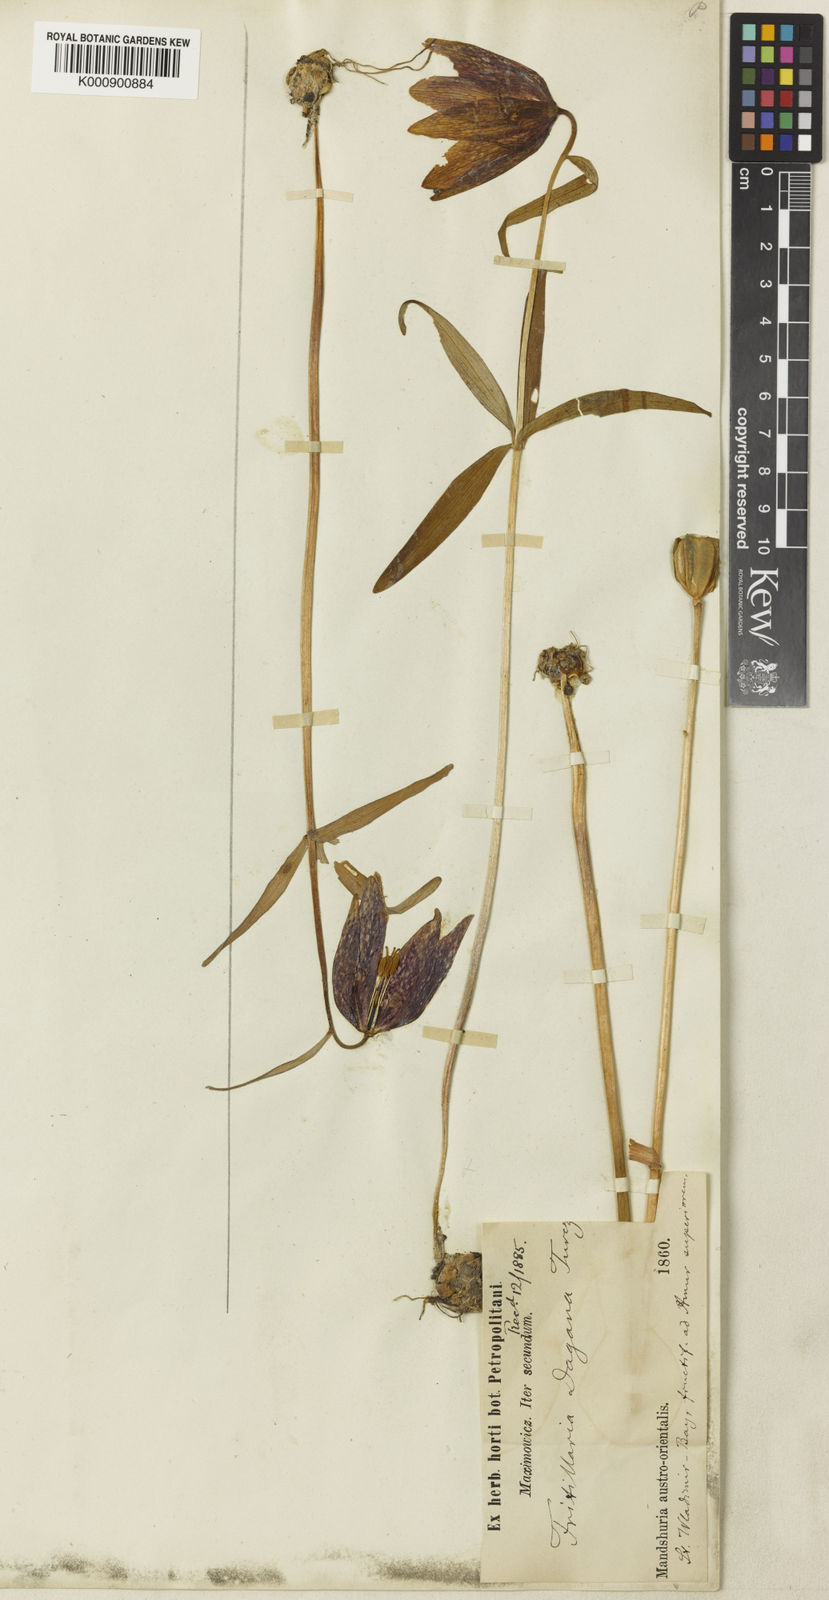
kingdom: Plantae
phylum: Tracheophyta
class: Liliopsida
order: Liliales
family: Liliaceae
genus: Fritillaria
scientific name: Fritillaria maximowiczii
